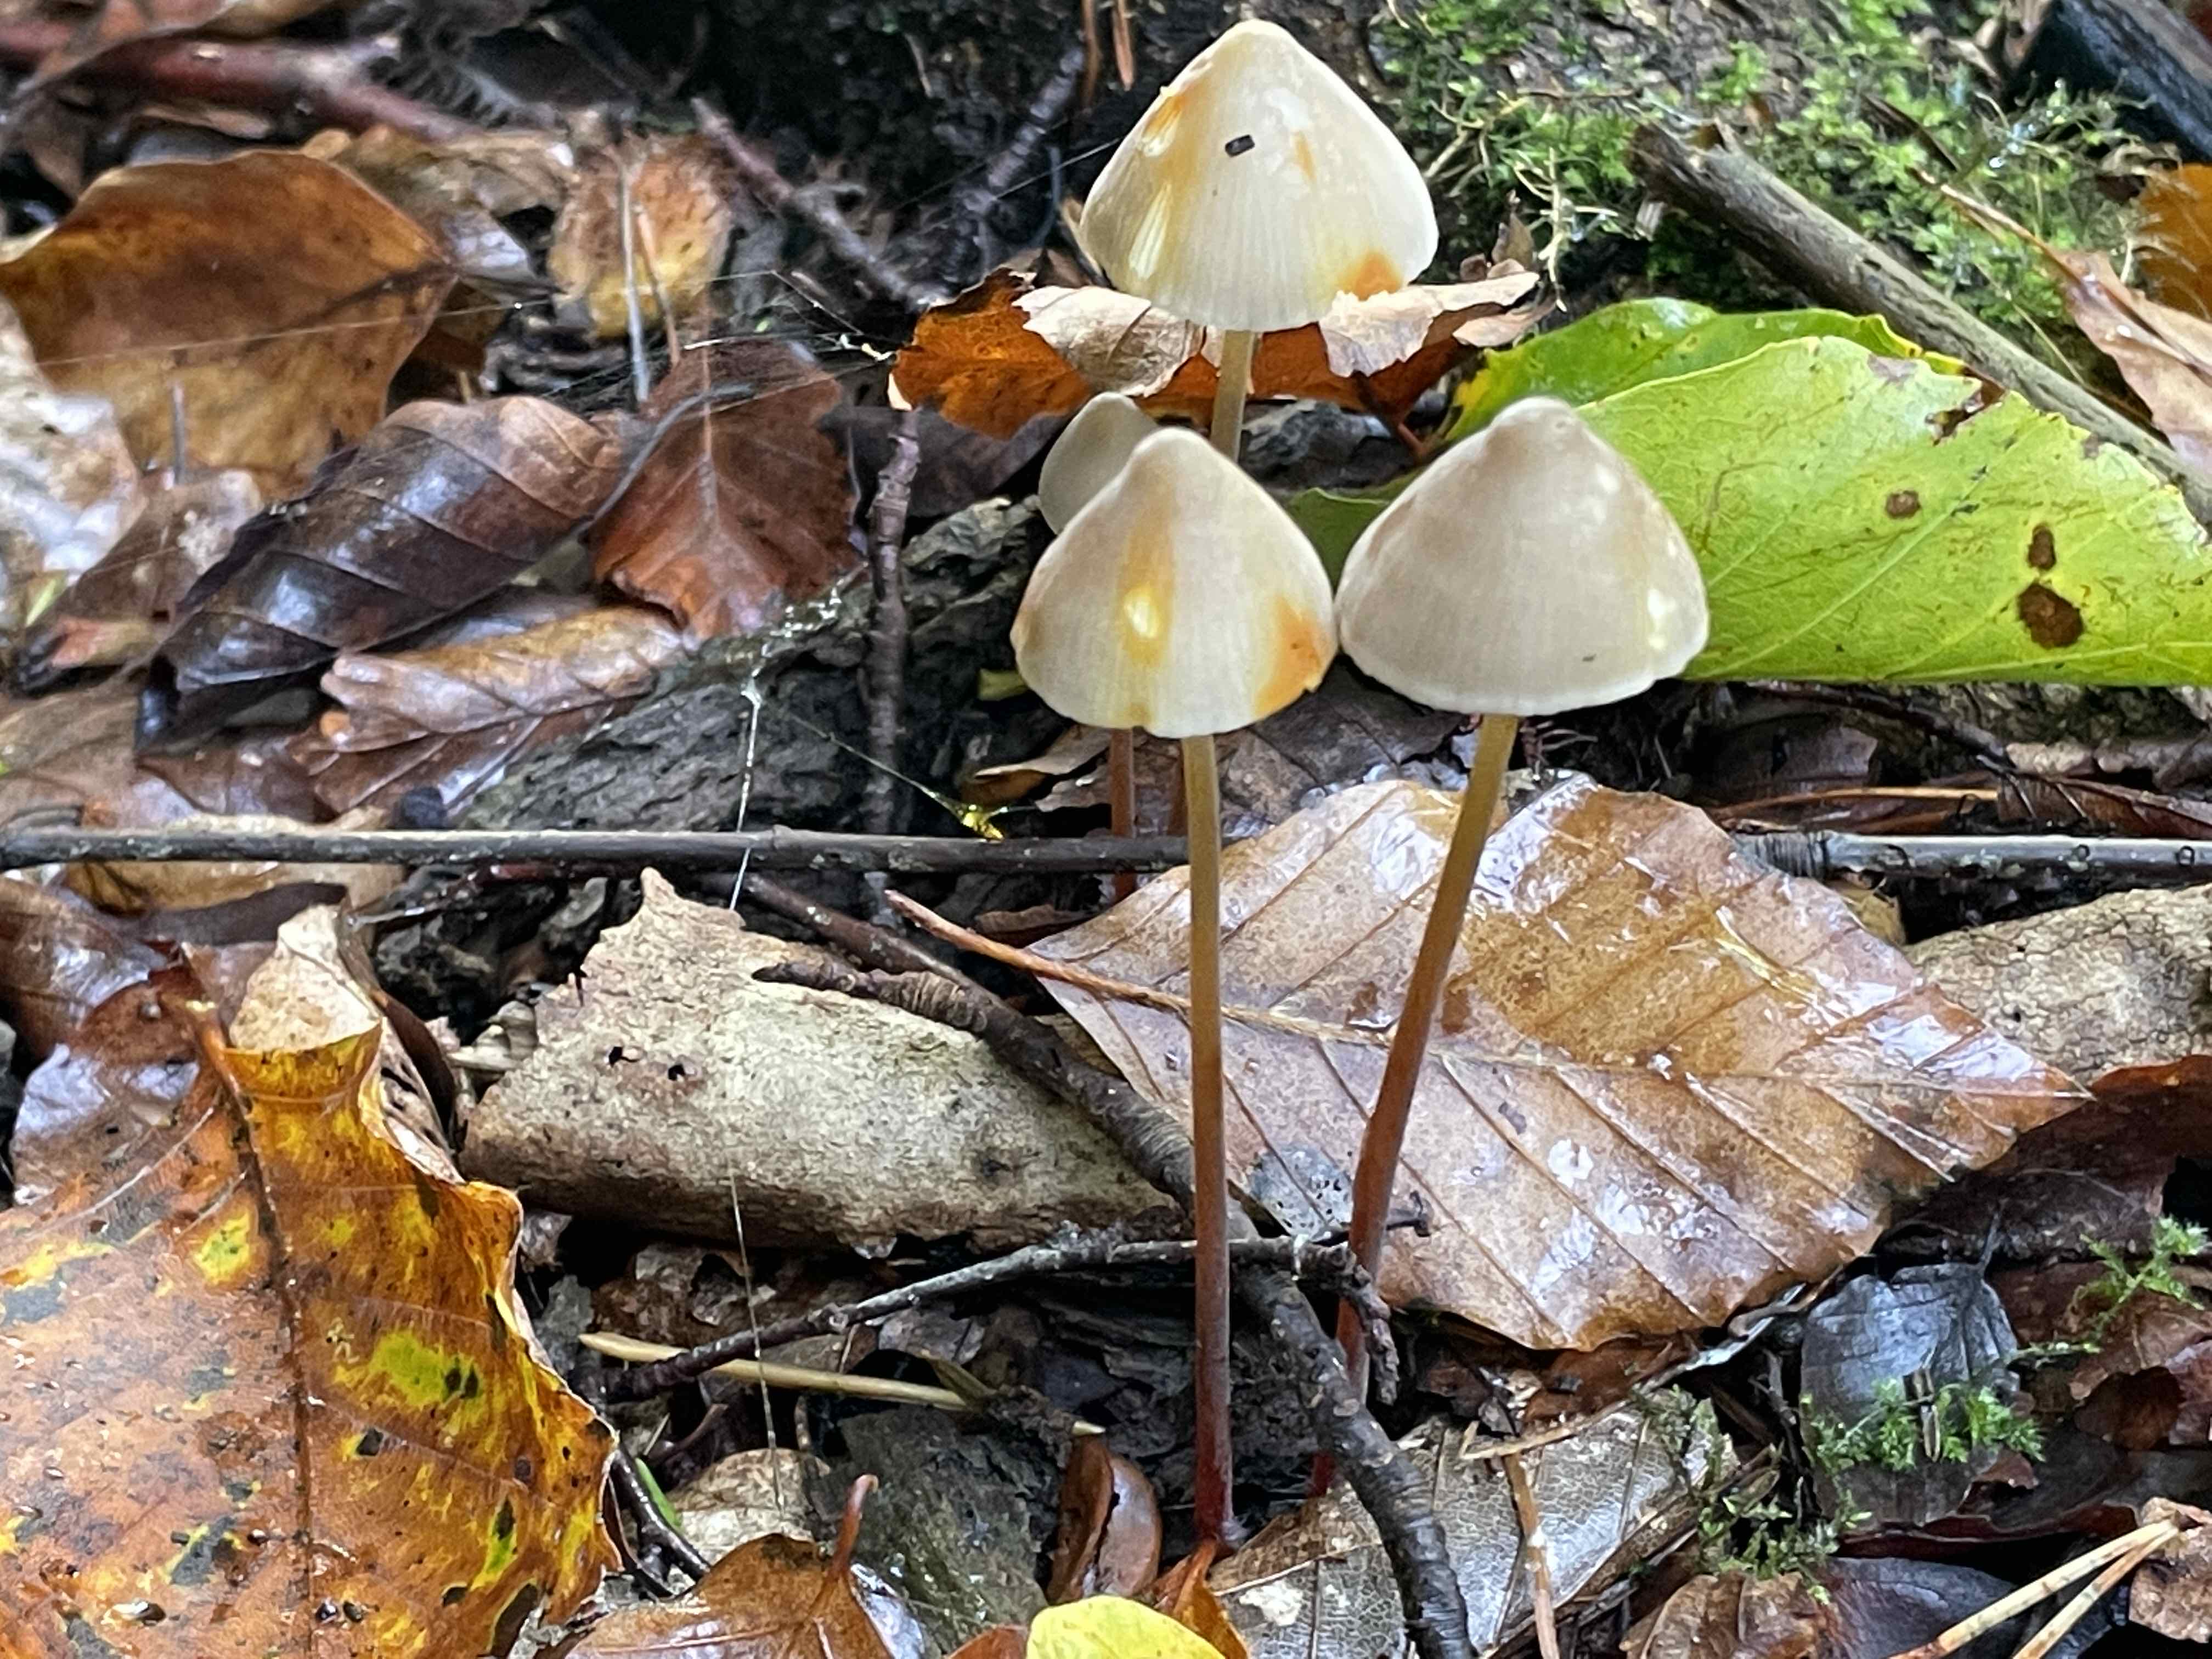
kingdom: Fungi
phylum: Basidiomycota
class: Agaricomycetes
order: Agaricales
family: Mycenaceae
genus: Mycena
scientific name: Mycena crocata
